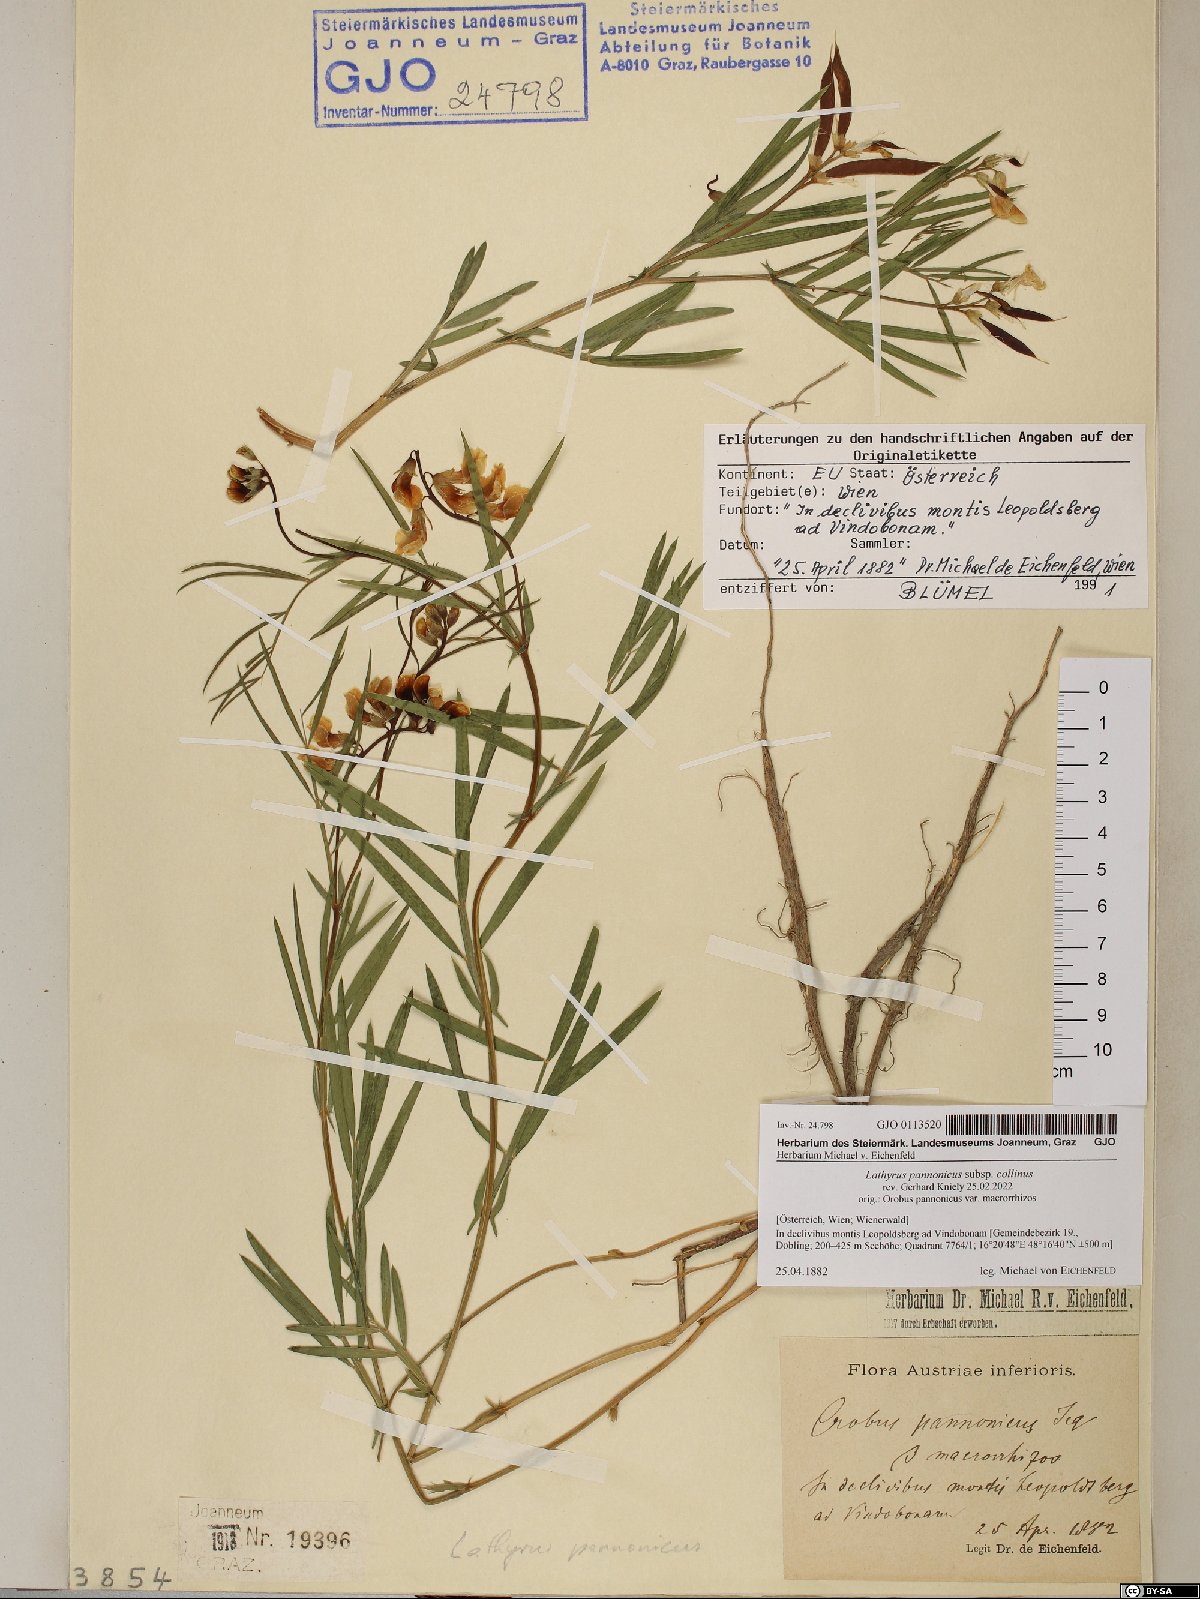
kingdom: Plantae
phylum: Tracheophyta
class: Magnoliopsida
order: Fabales
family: Fabaceae
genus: Lathyrus
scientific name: Lathyrus pannonicus
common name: Pea
